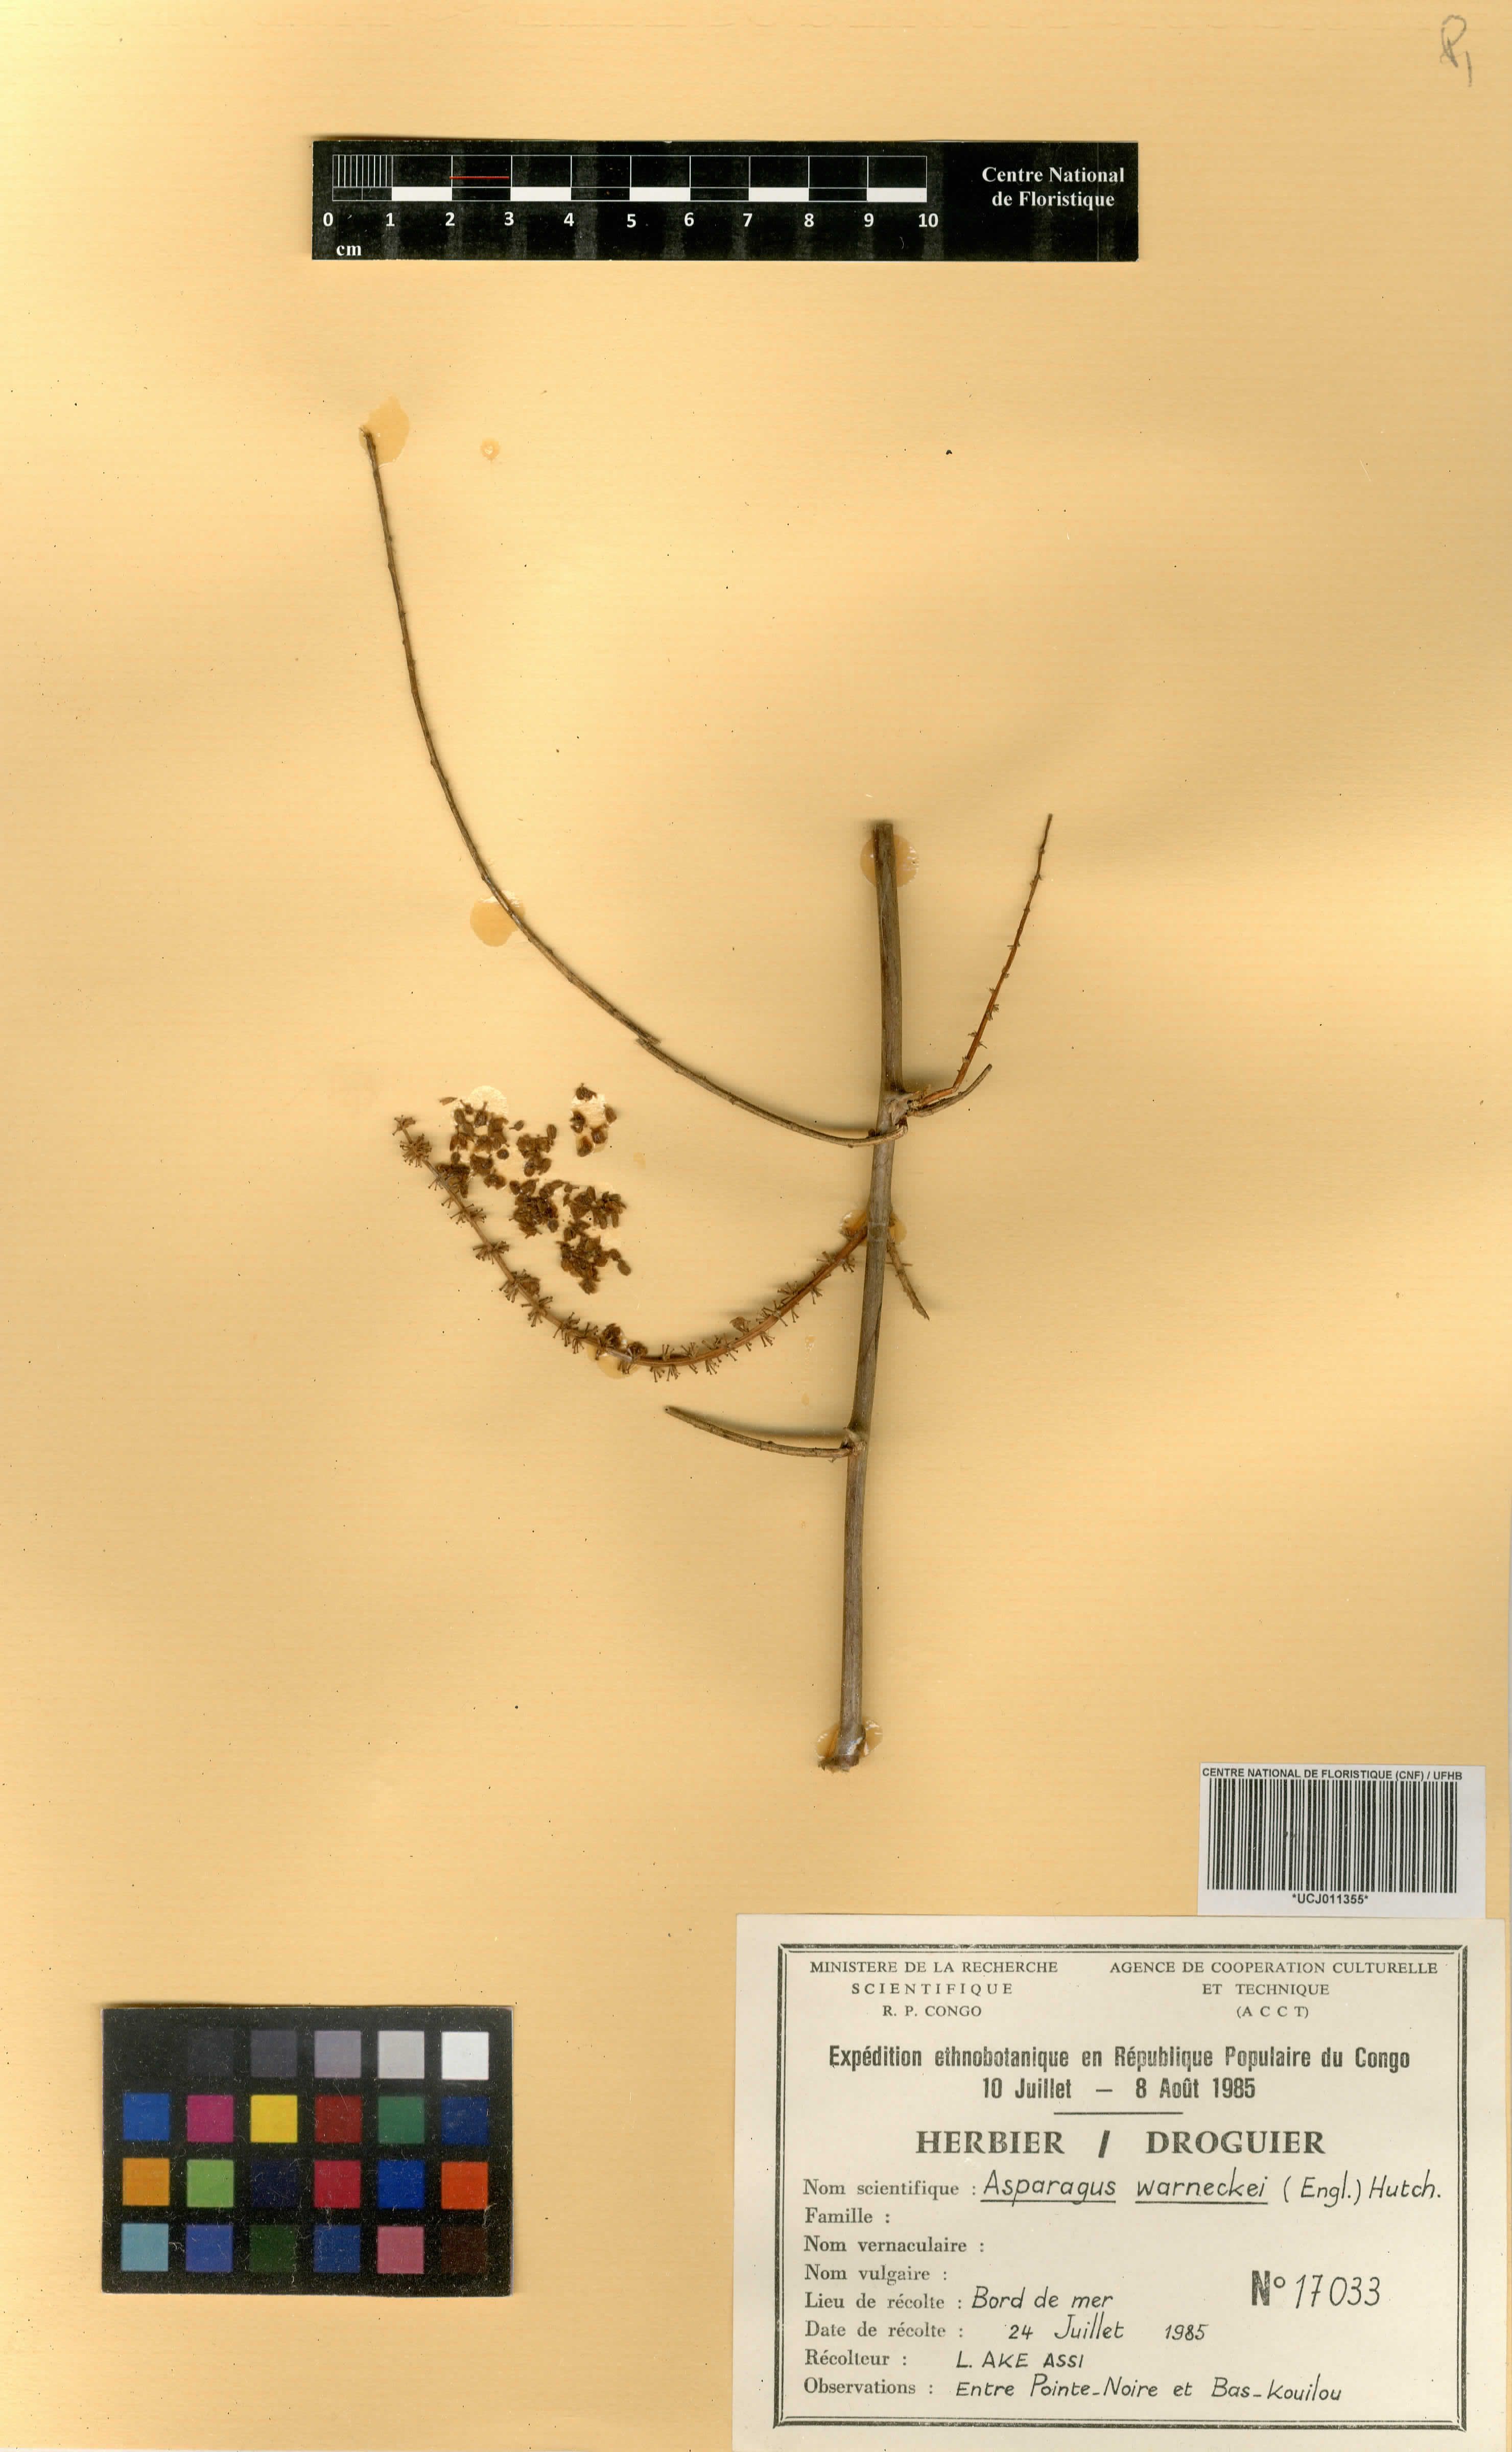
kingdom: Plantae
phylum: Tracheophyta
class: Liliopsida
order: Asparagales
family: Asparagaceae
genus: Asparagus
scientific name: Asparagus warneckei
